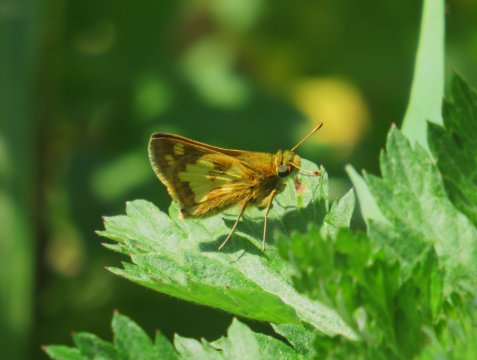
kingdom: Animalia
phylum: Arthropoda
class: Insecta
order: Lepidoptera
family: Hesperiidae
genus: Polites
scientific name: Polites coras
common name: Peck's Skipper
